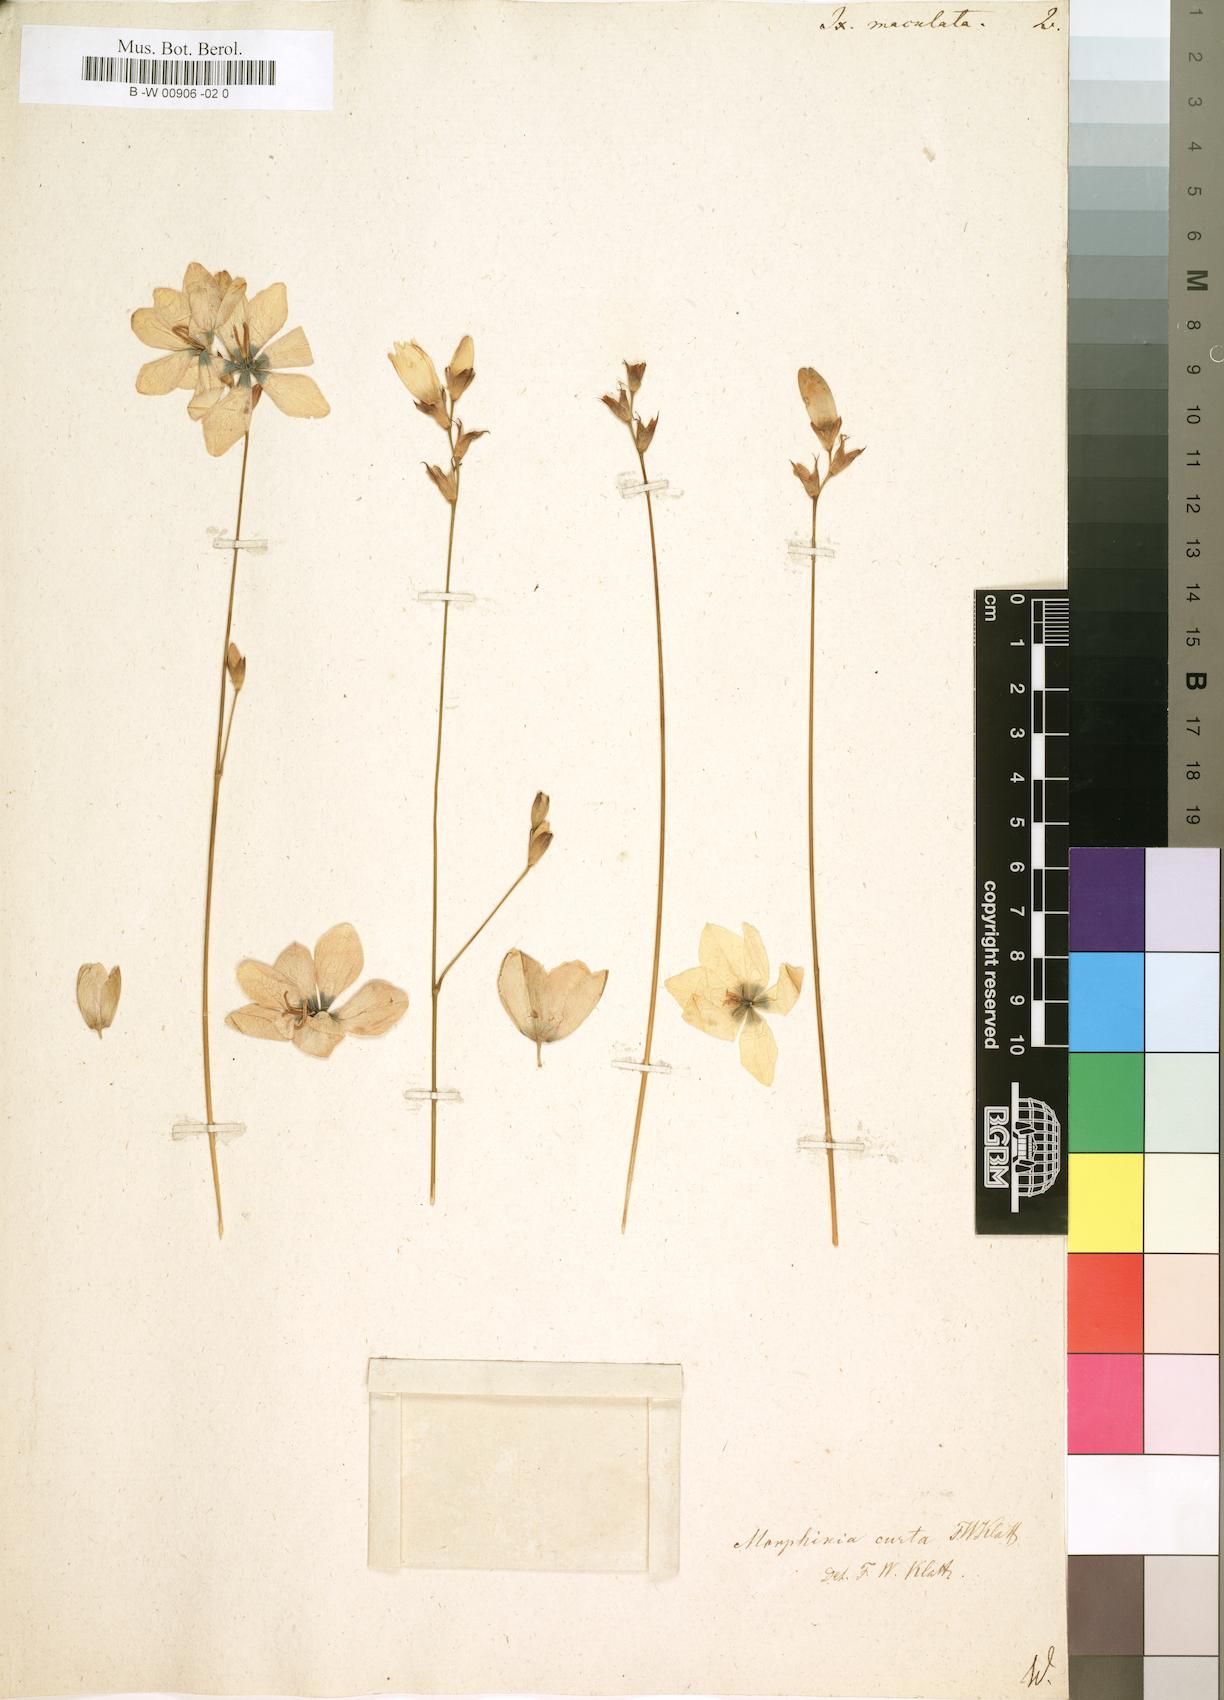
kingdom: Plantae
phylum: Tracheophyta
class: Liliopsida
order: Asparagales
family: Iridaceae
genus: Ixia
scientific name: Ixia maculata
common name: Spotted african cornlily
